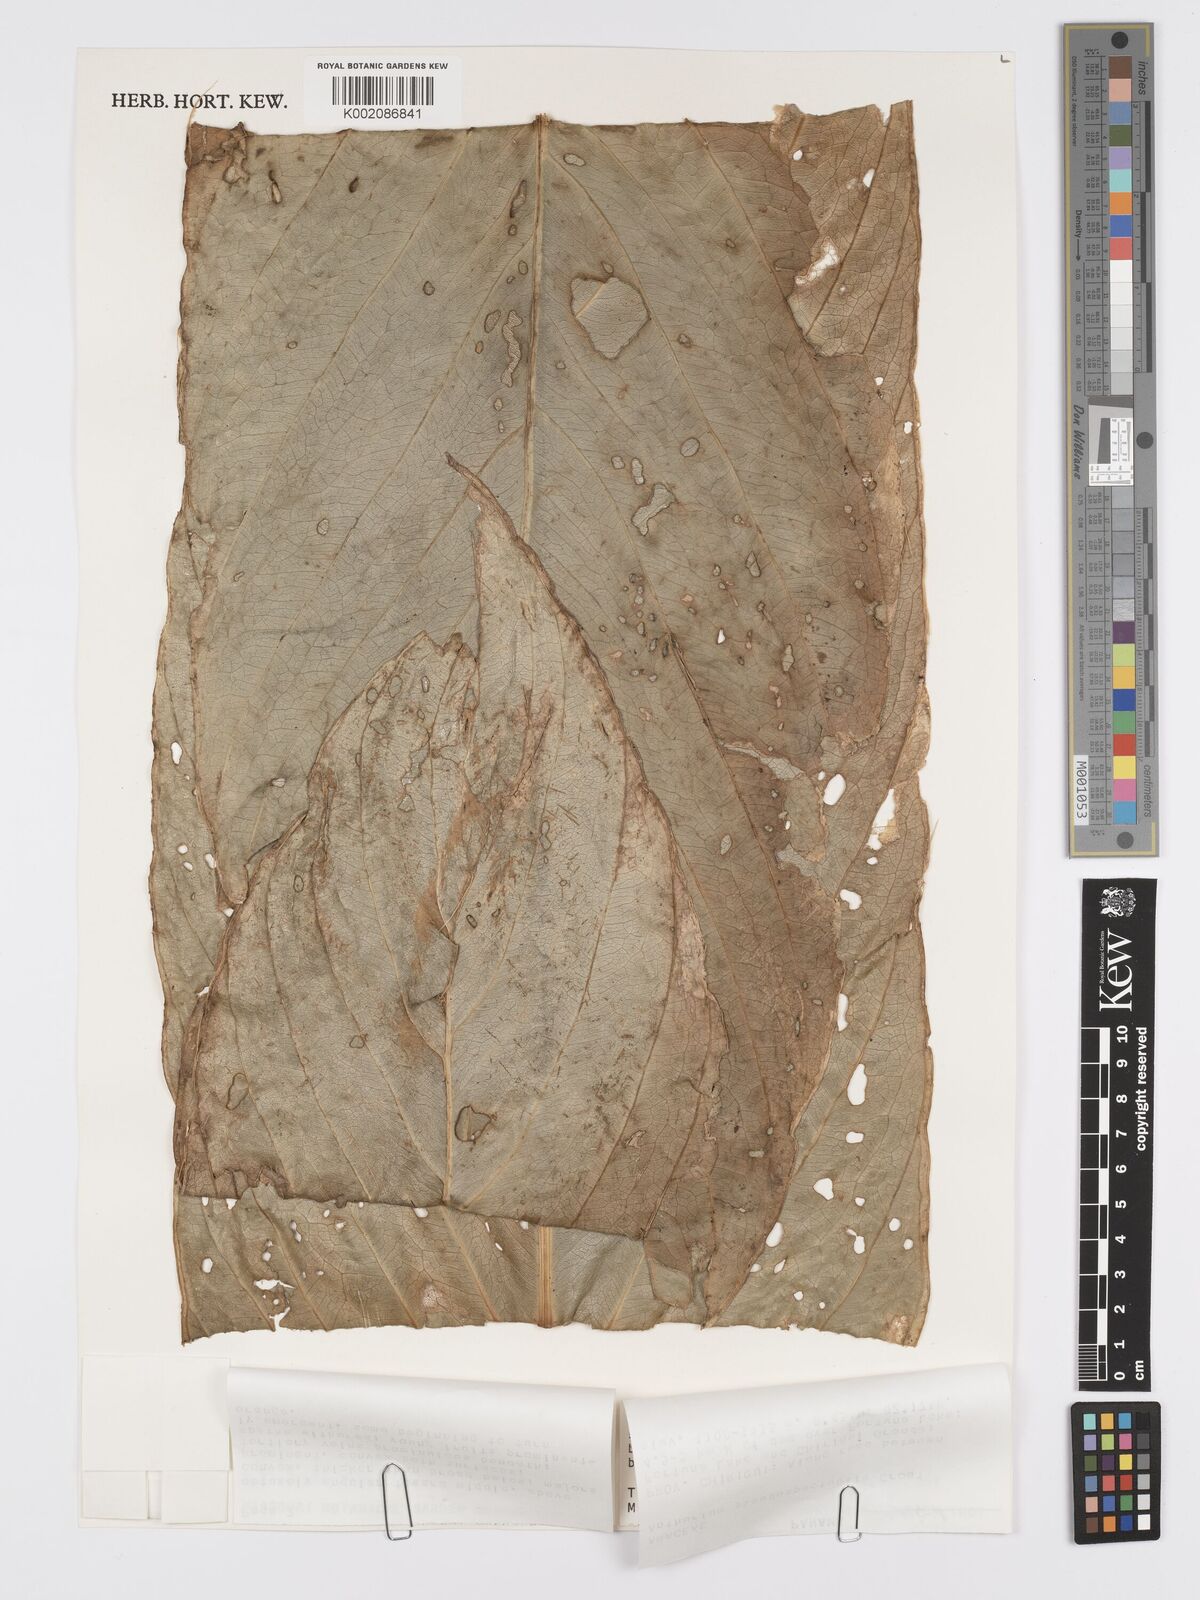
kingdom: Plantae
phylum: Tracheophyta
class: Liliopsida
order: Alismatales
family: Araceae
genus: Anthurium
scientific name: Anthurium pseudospectabile
